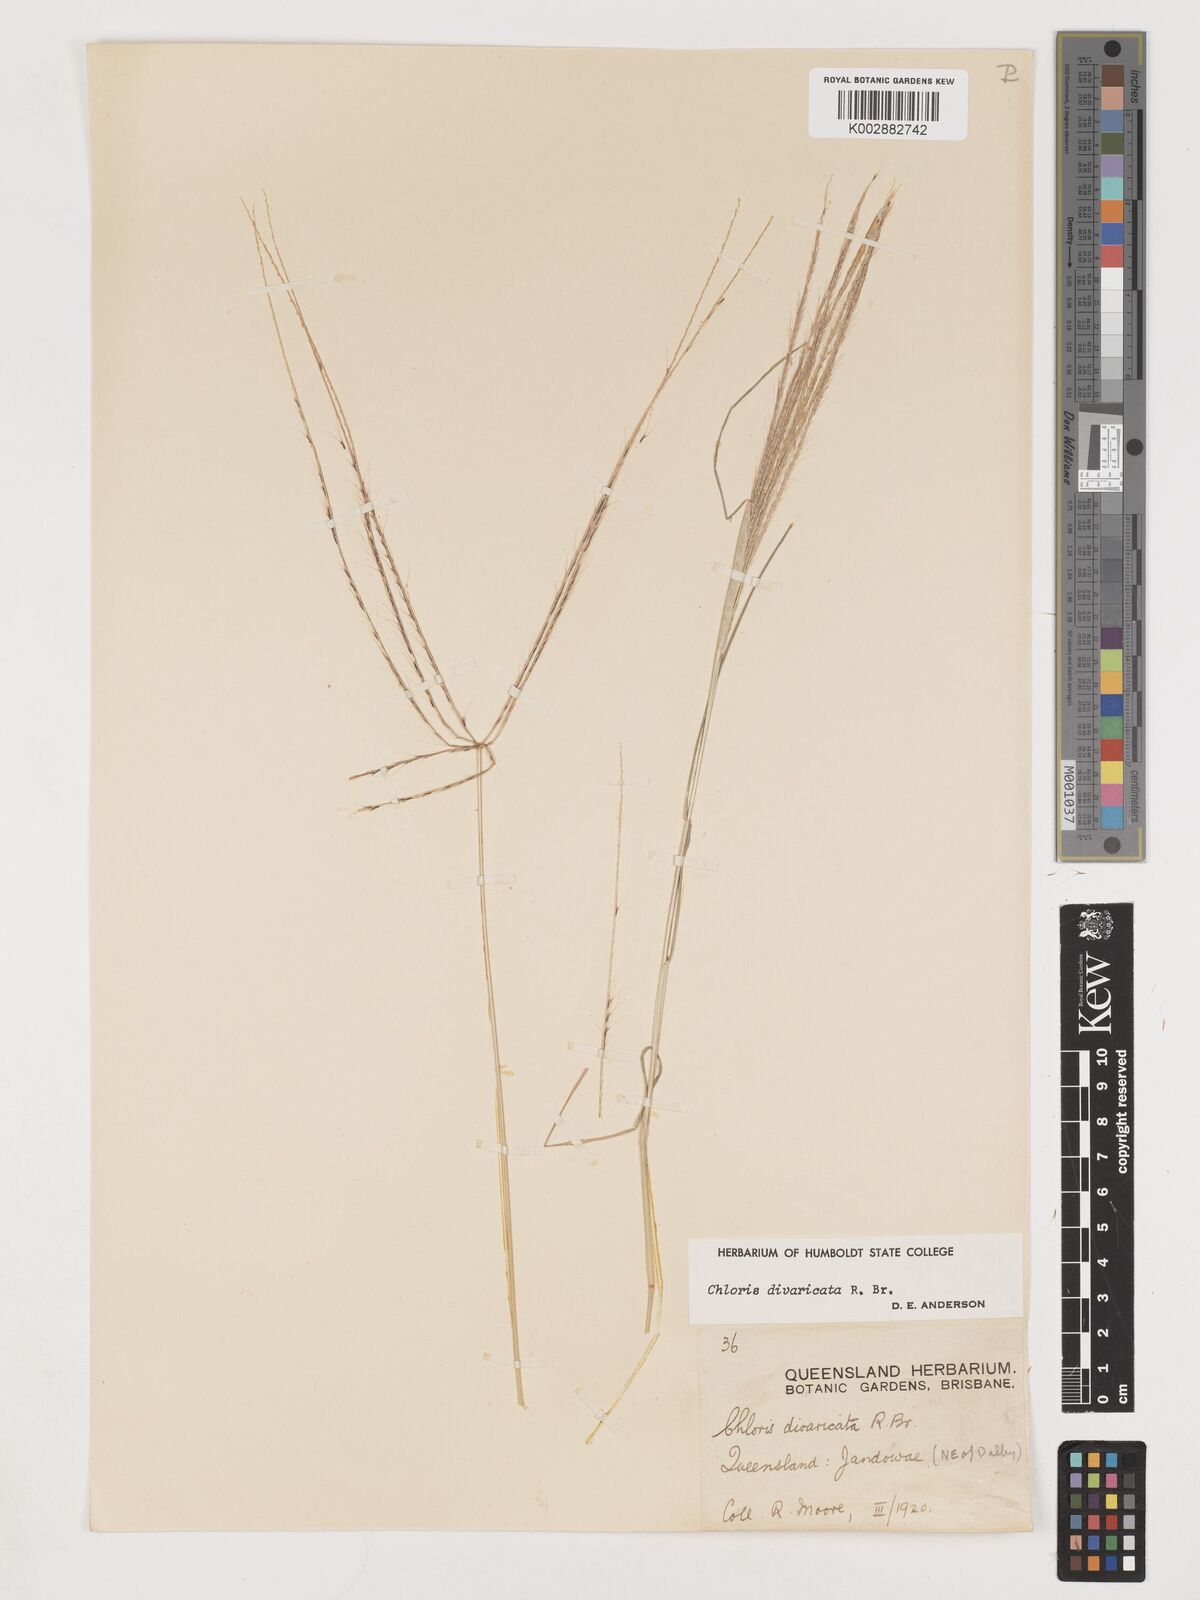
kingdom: Plantae
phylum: Tracheophyta
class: Liliopsida
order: Poales
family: Poaceae
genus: Chloris
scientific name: Chloris divaricata
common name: Spreading windmill grass
